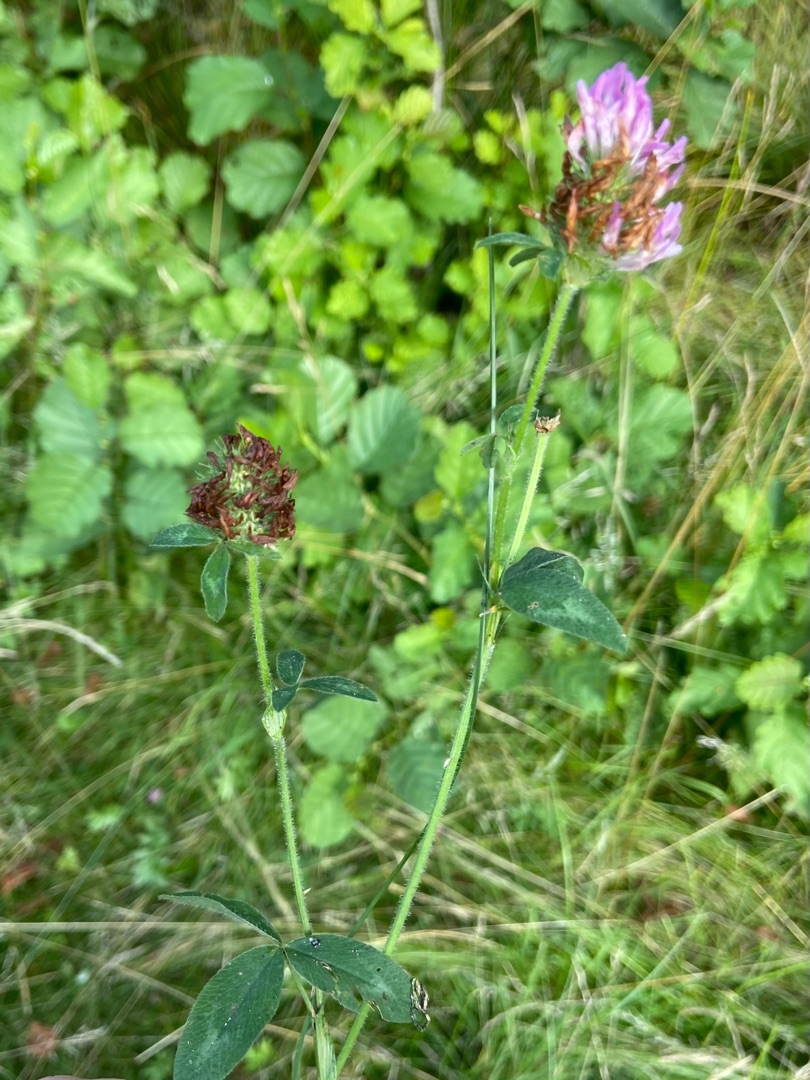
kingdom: Plantae
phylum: Tracheophyta
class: Magnoliopsida
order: Fabales
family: Fabaceae
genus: Trifolium
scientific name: Trifolium pratense
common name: Rød-kløver
